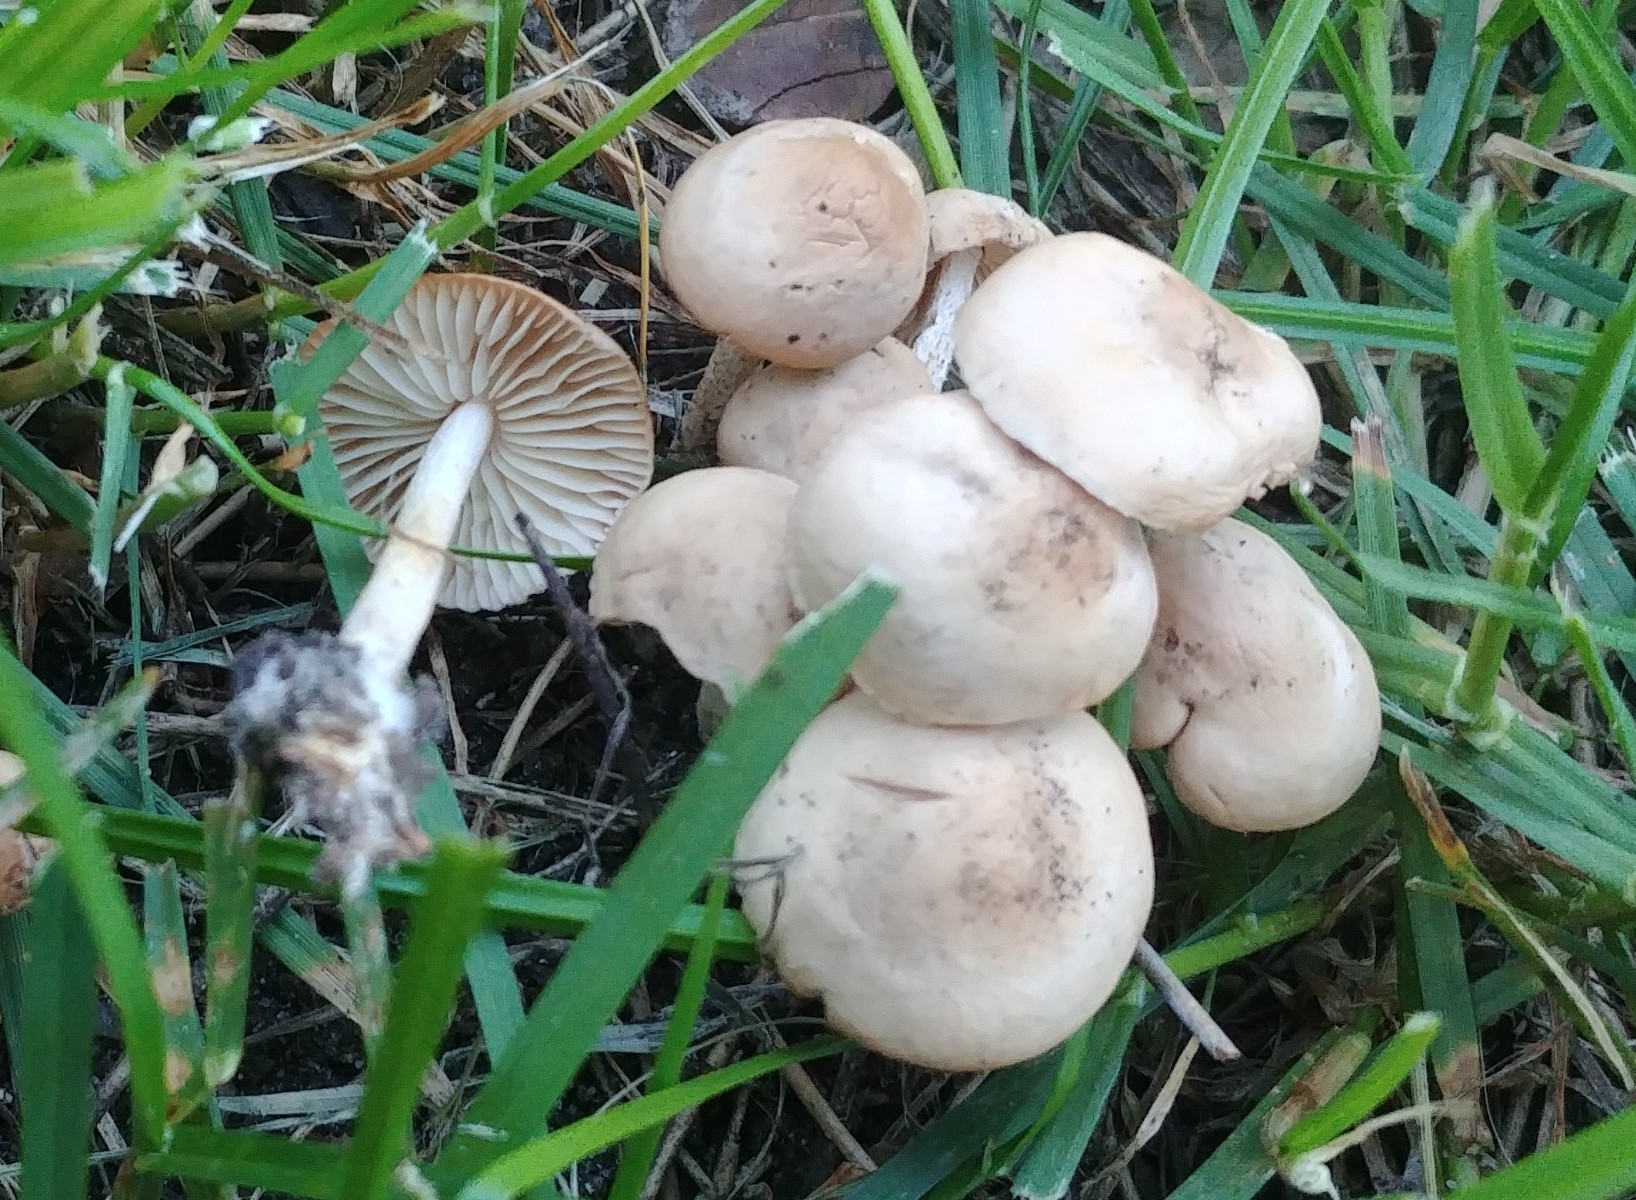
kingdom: Fungi
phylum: Basidiomycota
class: Agaricomycetes
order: Agaricales
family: Marasmiaceae
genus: Marasmius
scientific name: Marasmius oreades
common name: elledans-bruskhat
